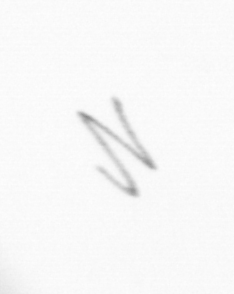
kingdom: Chromista
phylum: Ochrophyta
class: Bacillariophyceae
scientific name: Bacillariophyceae
